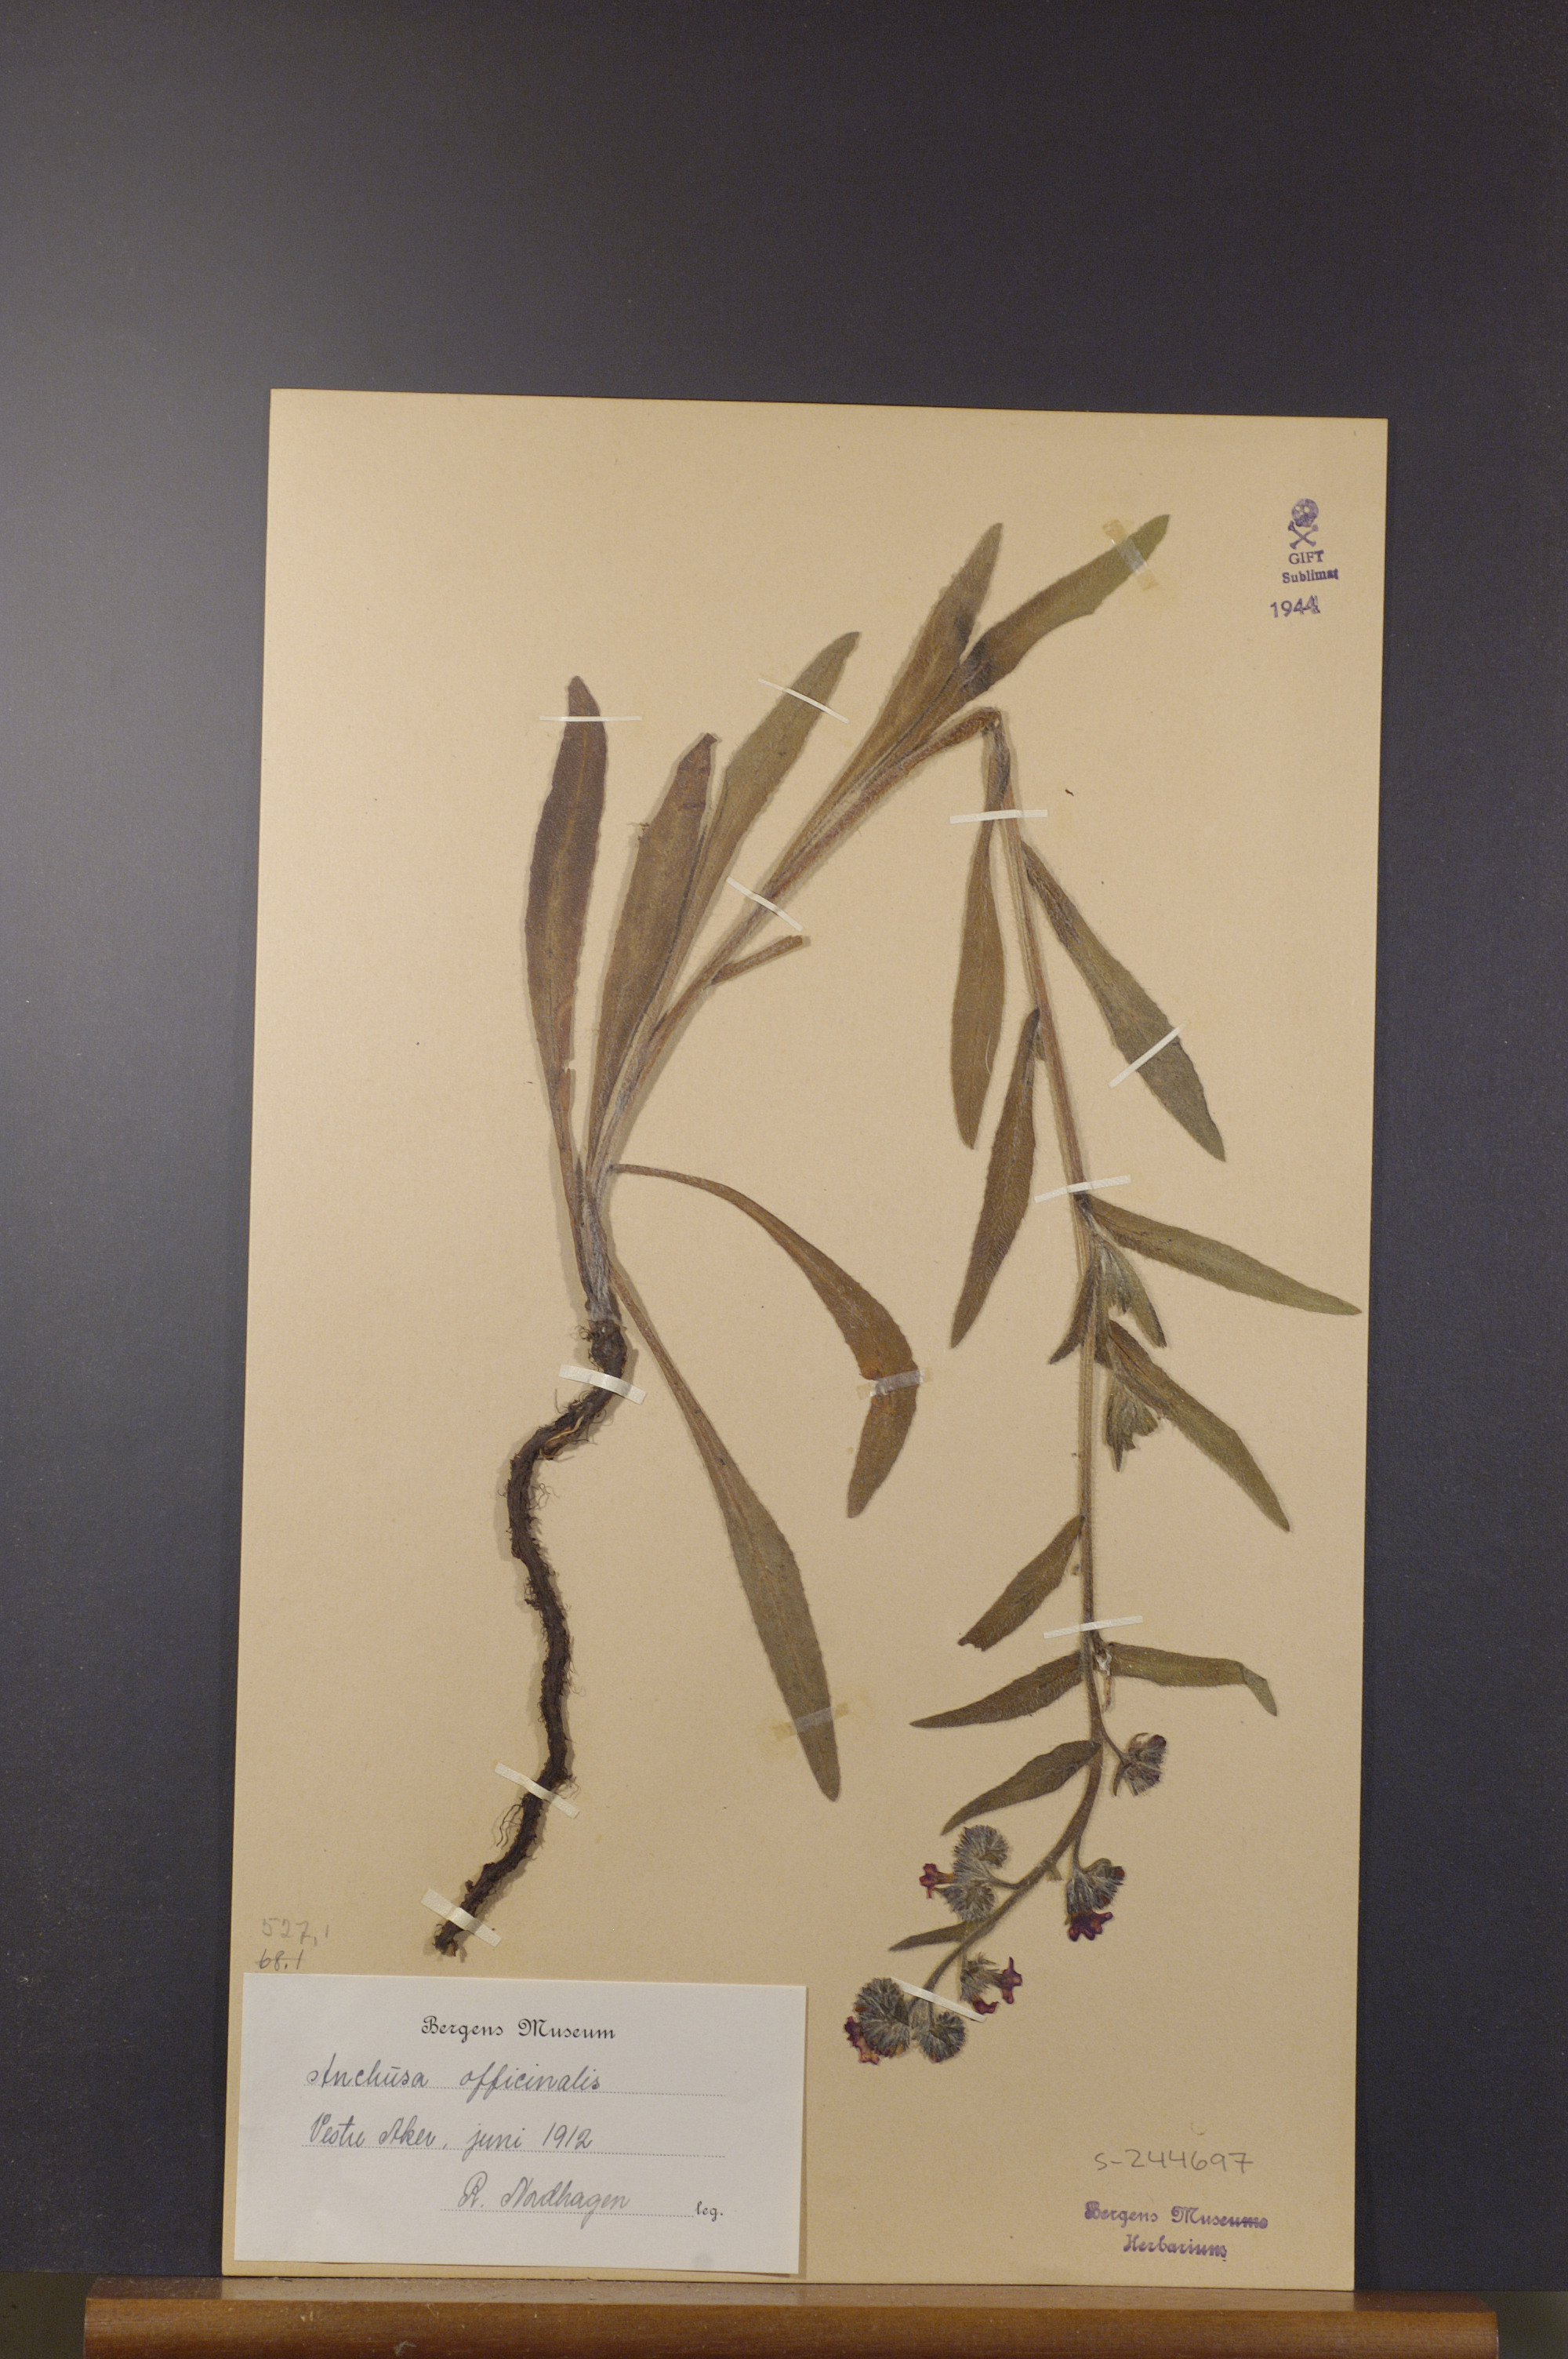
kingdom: Plantae
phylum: Tracheophyta
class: Magnoliopsida
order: Boraginales
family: Boraginaceae
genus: Anchusa
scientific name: Anchusa officinalis
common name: Alkanet
